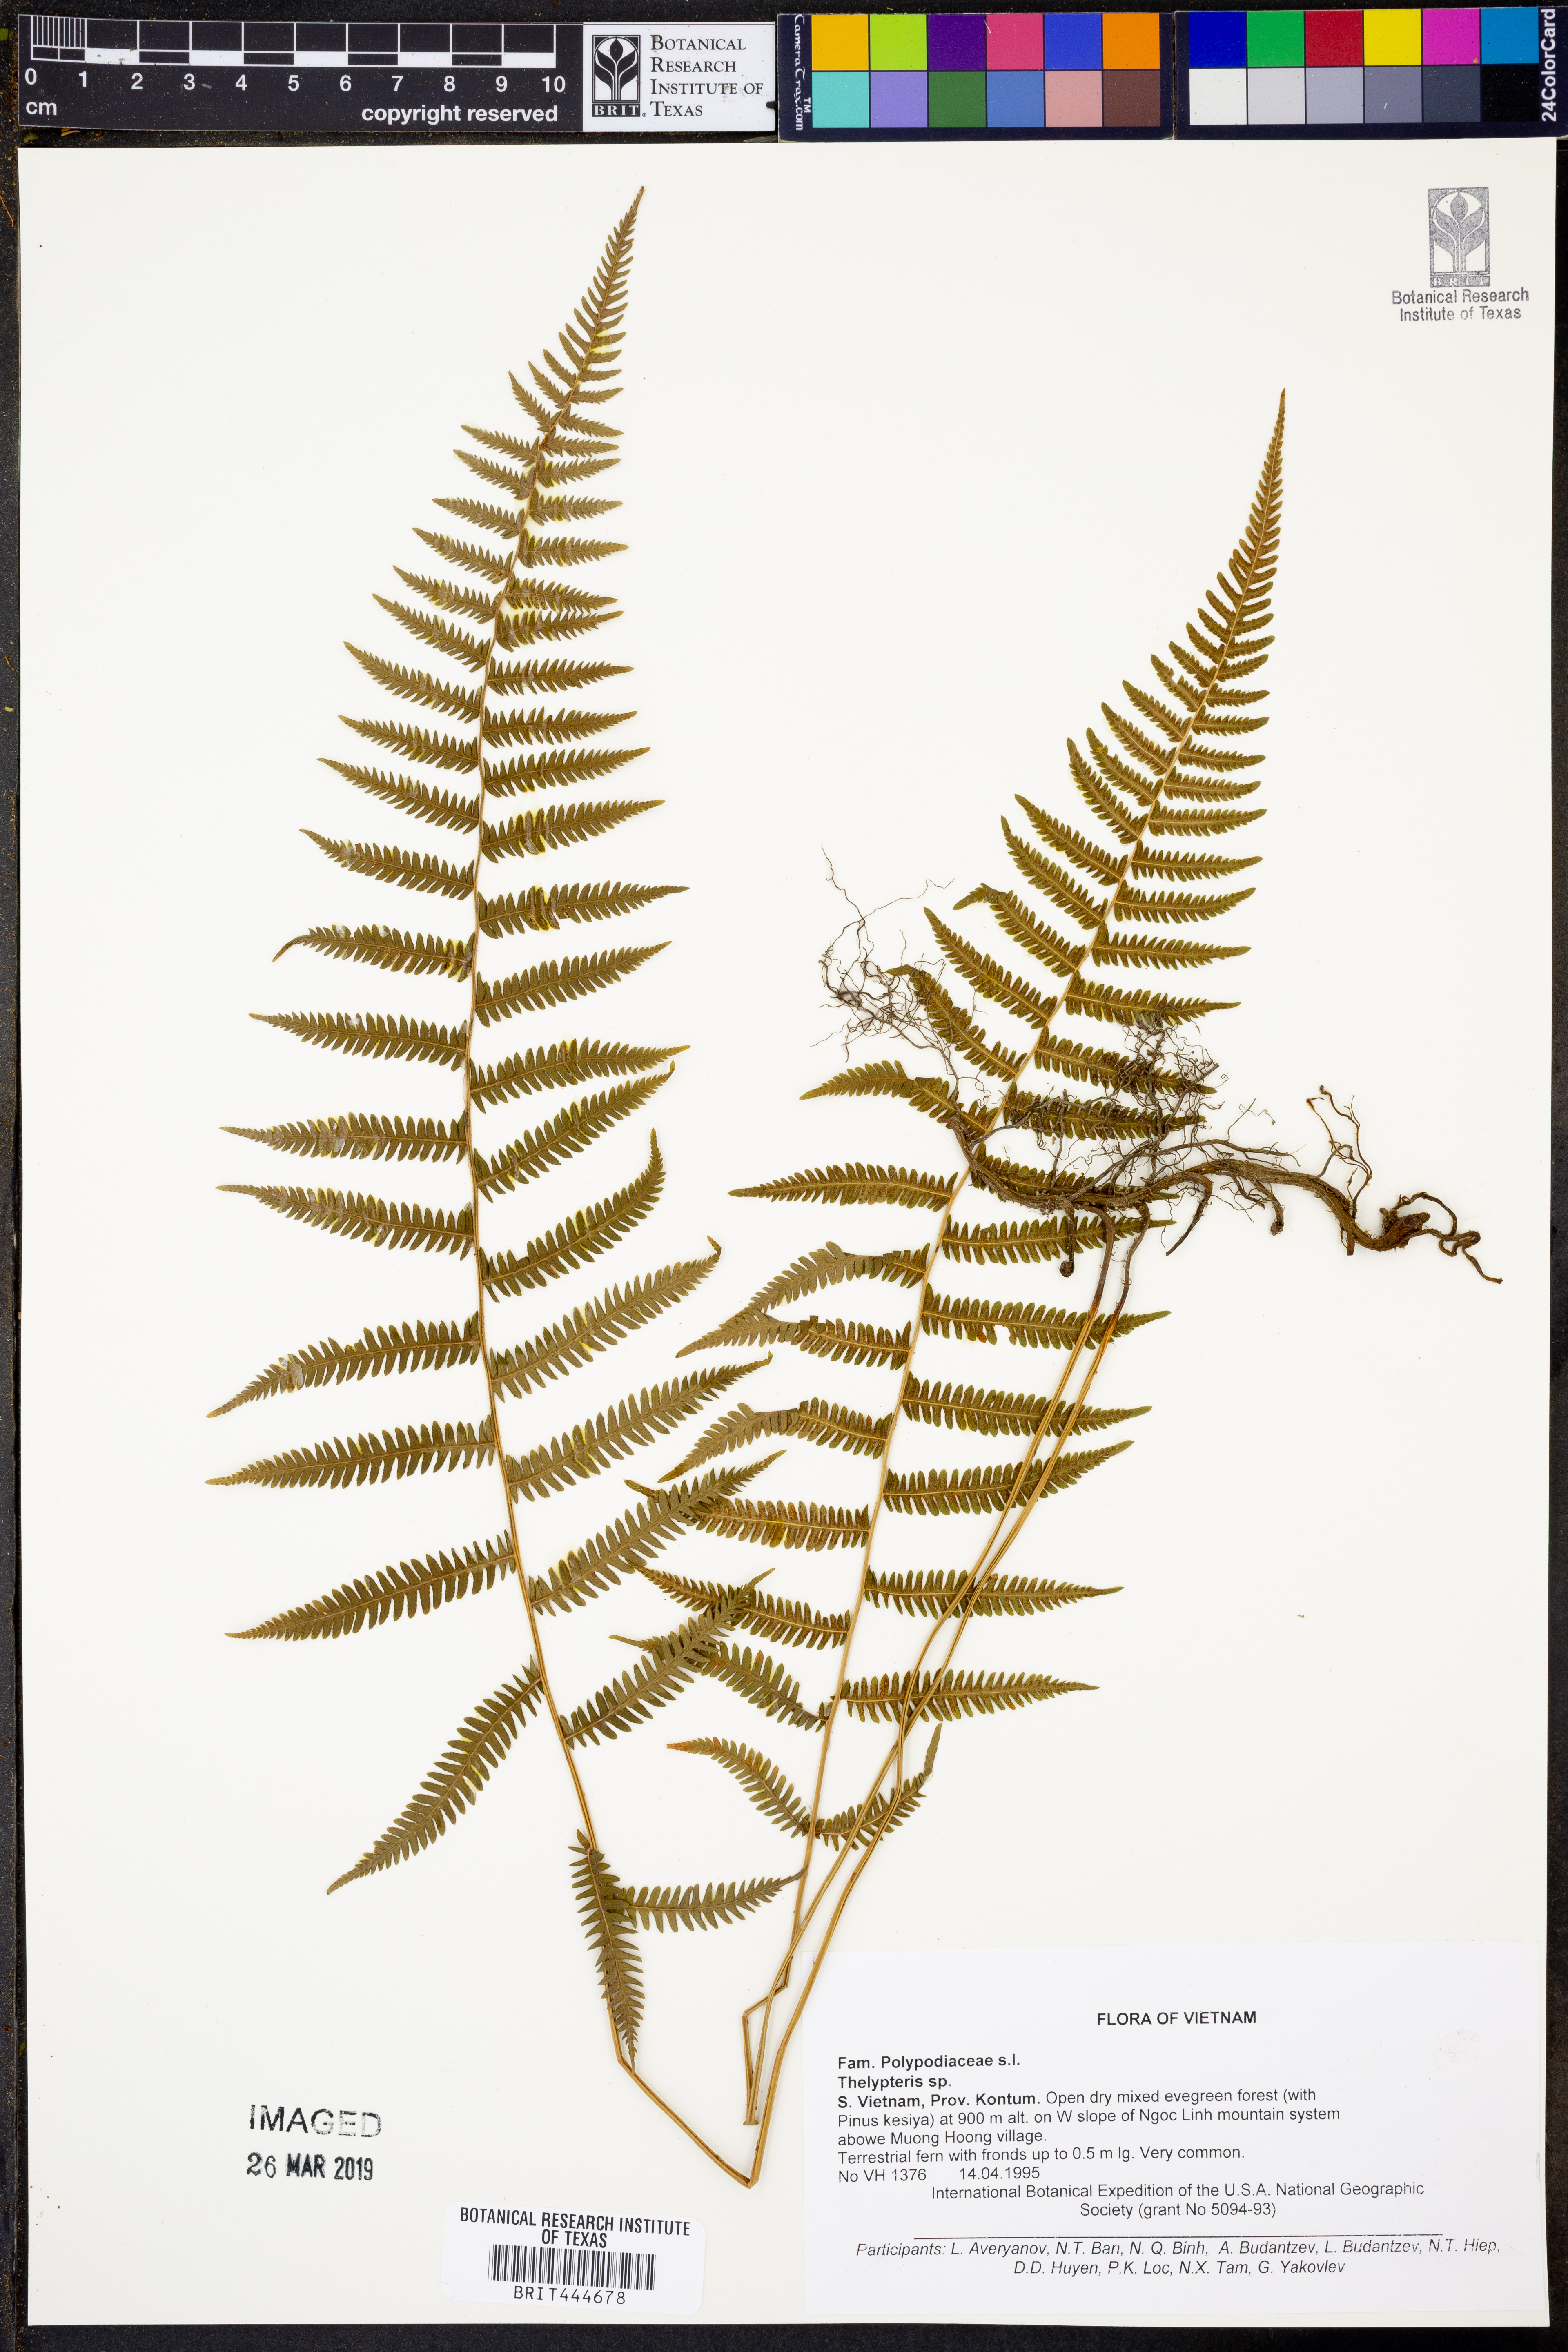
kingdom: Plantae
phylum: Tracheophyta
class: Polypodiopsida
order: Polypodiales
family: Thelypteridaceae
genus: Thelypteris
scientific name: Thelypteris
